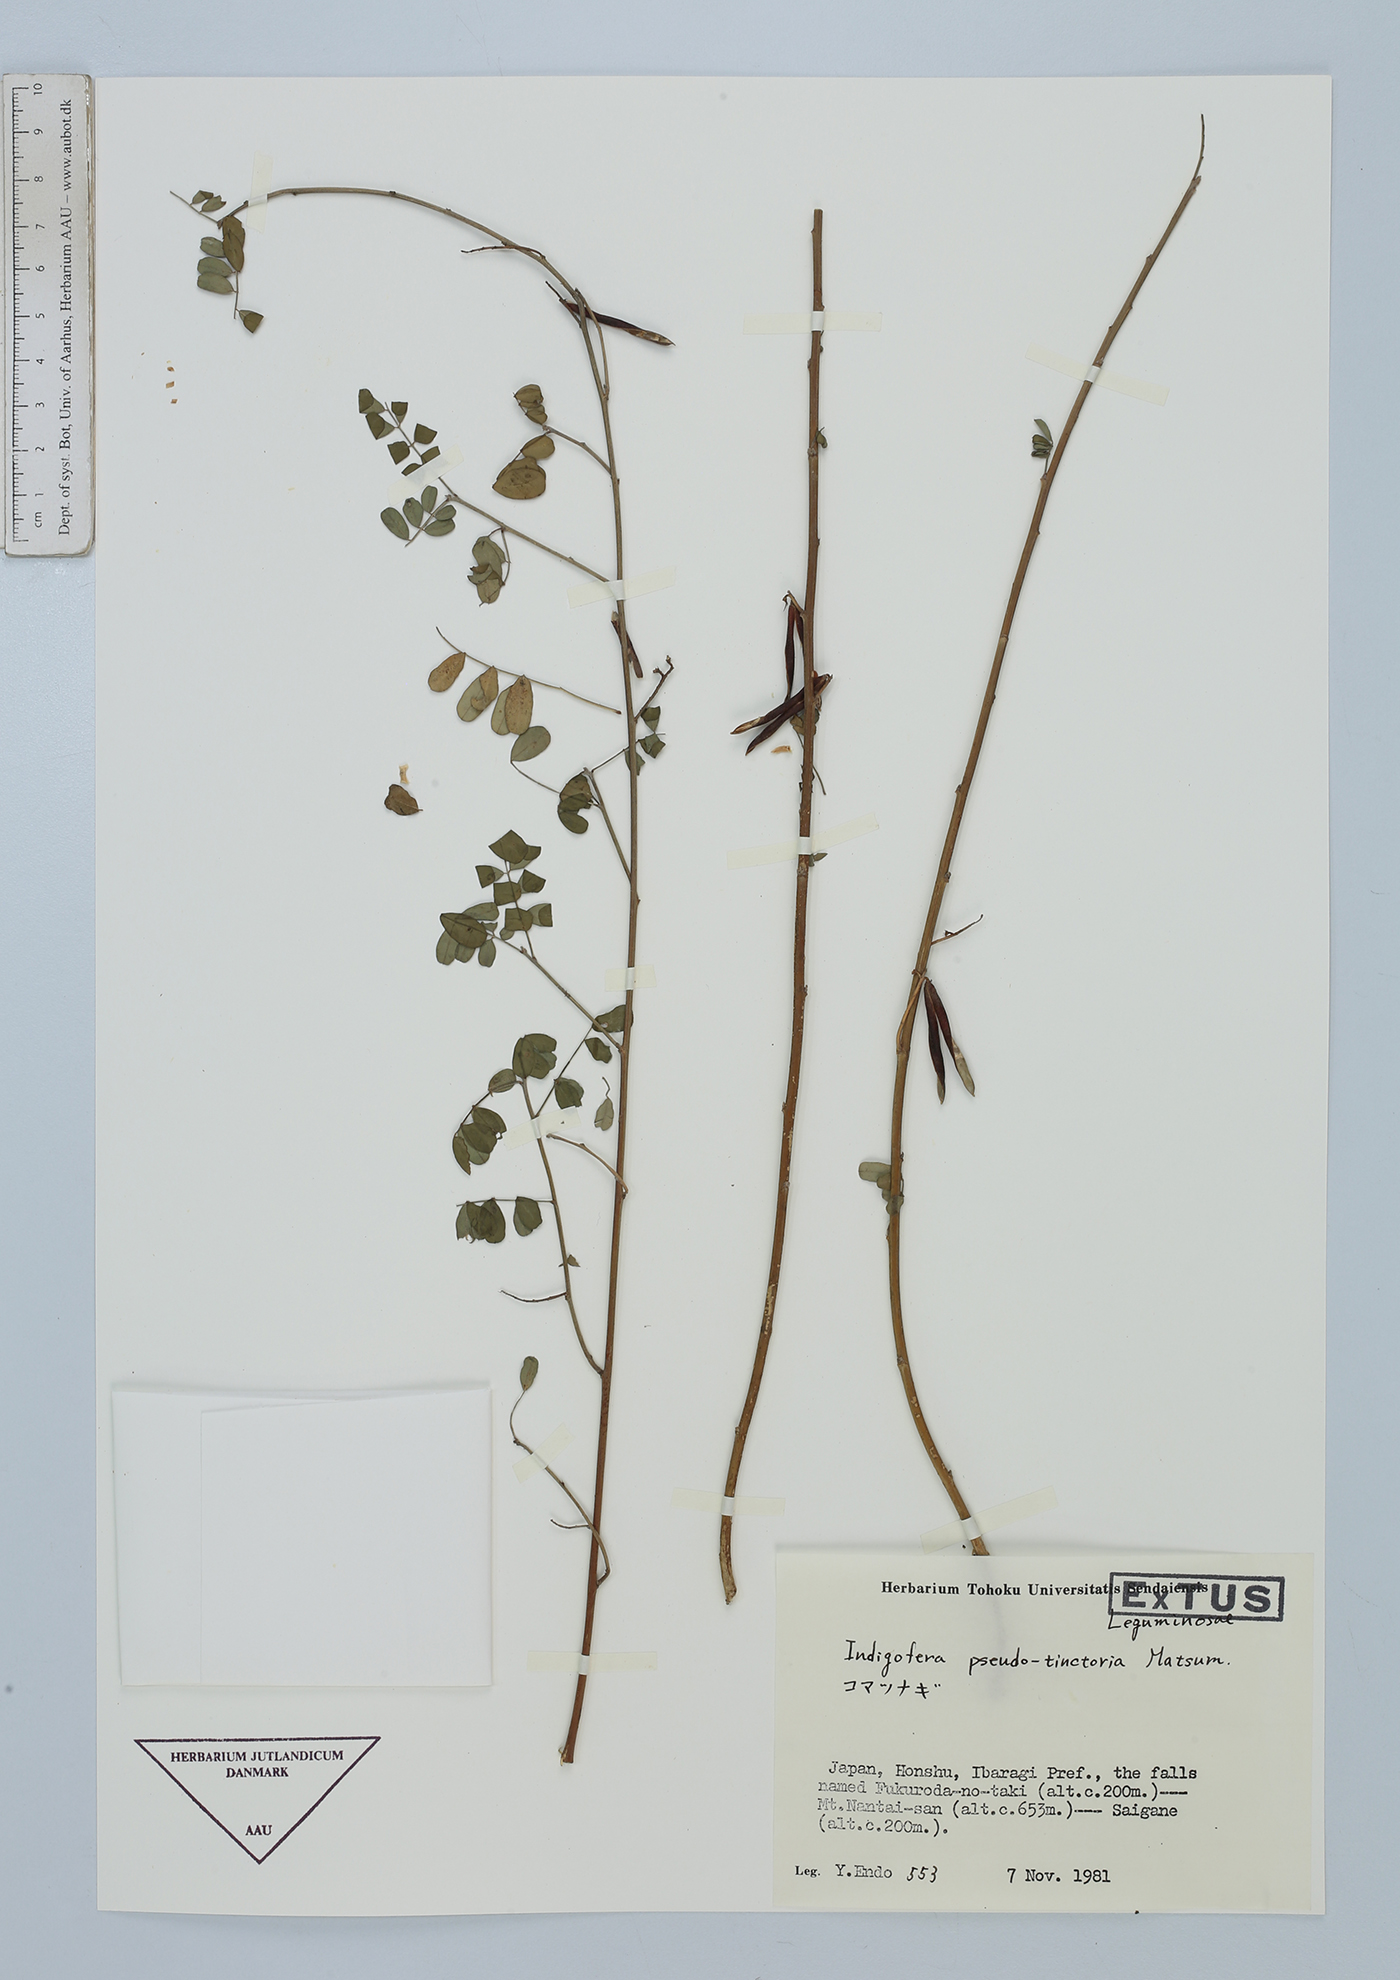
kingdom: Plantae
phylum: Tracheophyta
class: Magnoliopsida
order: Fabales
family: Fabaceae
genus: Indigofera
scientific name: Indigofera bungeana
